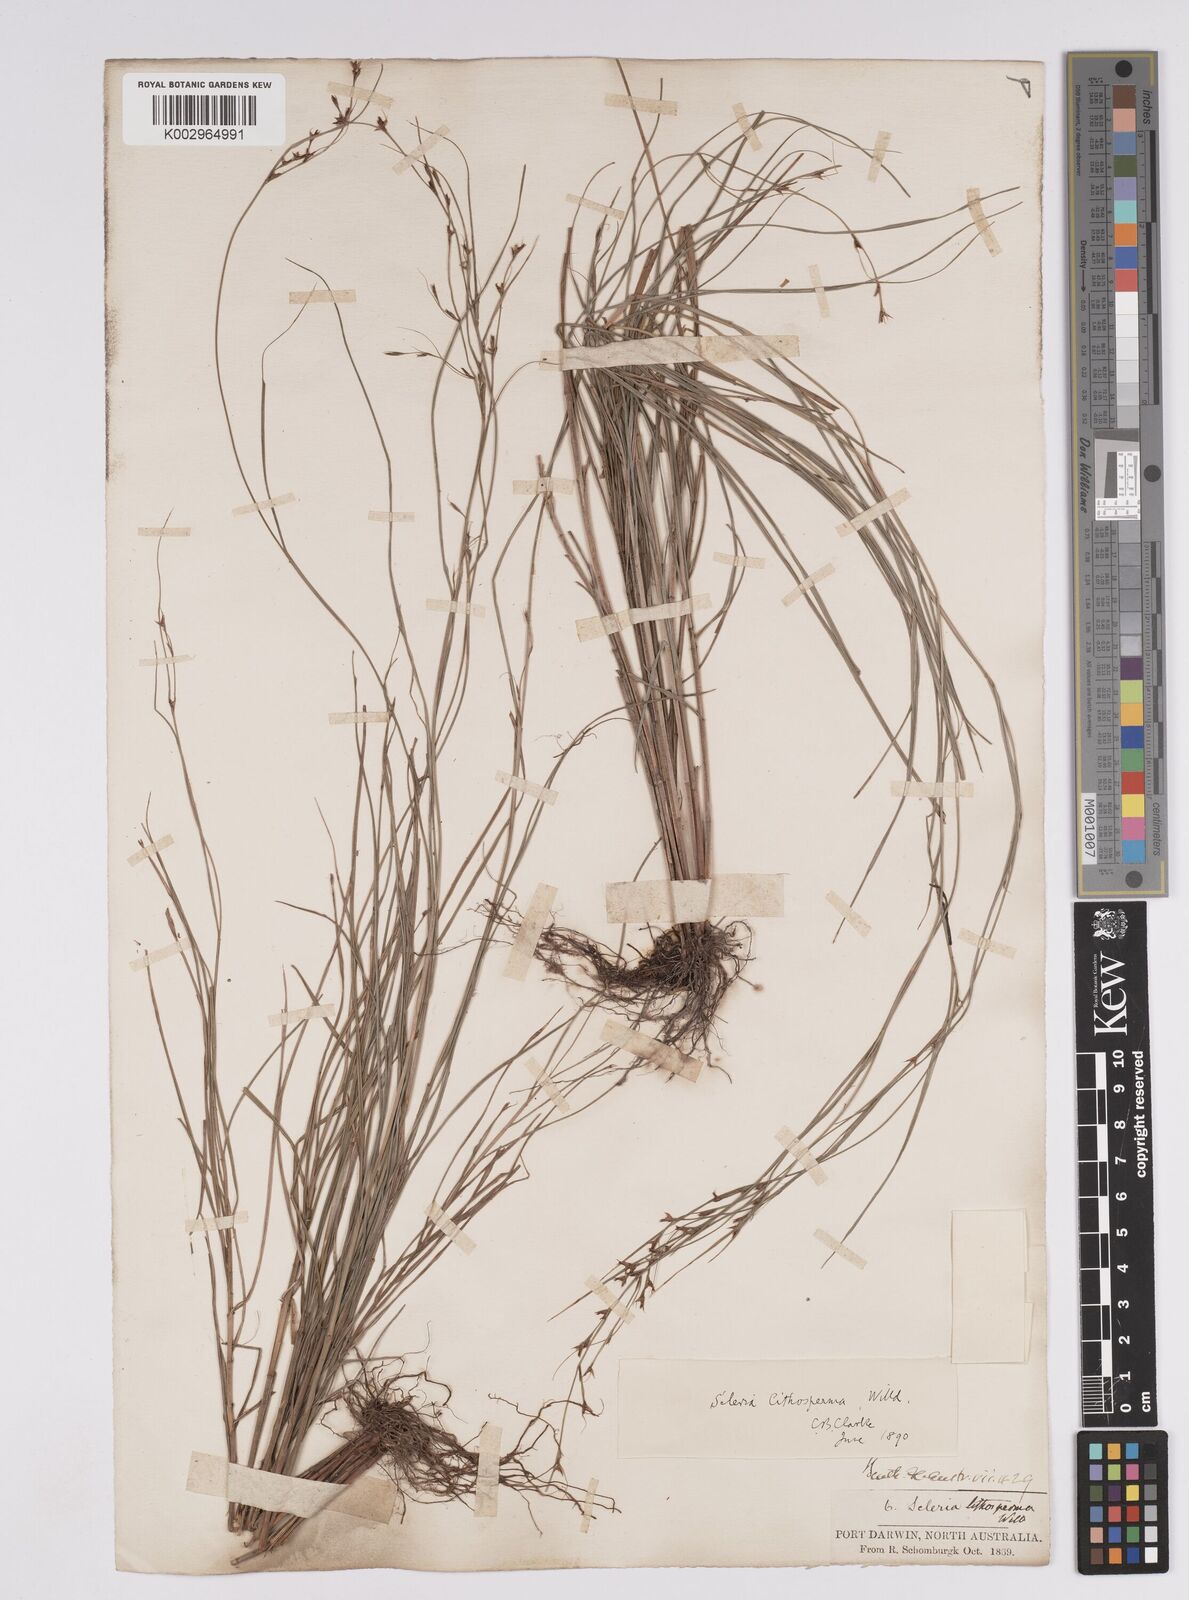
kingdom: Plantae
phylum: Tracheophyta
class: Liliopsida
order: Poales
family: Cyperaceae
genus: Scleria
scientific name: Scleria lithosperma
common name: Florida keys nut-rush
